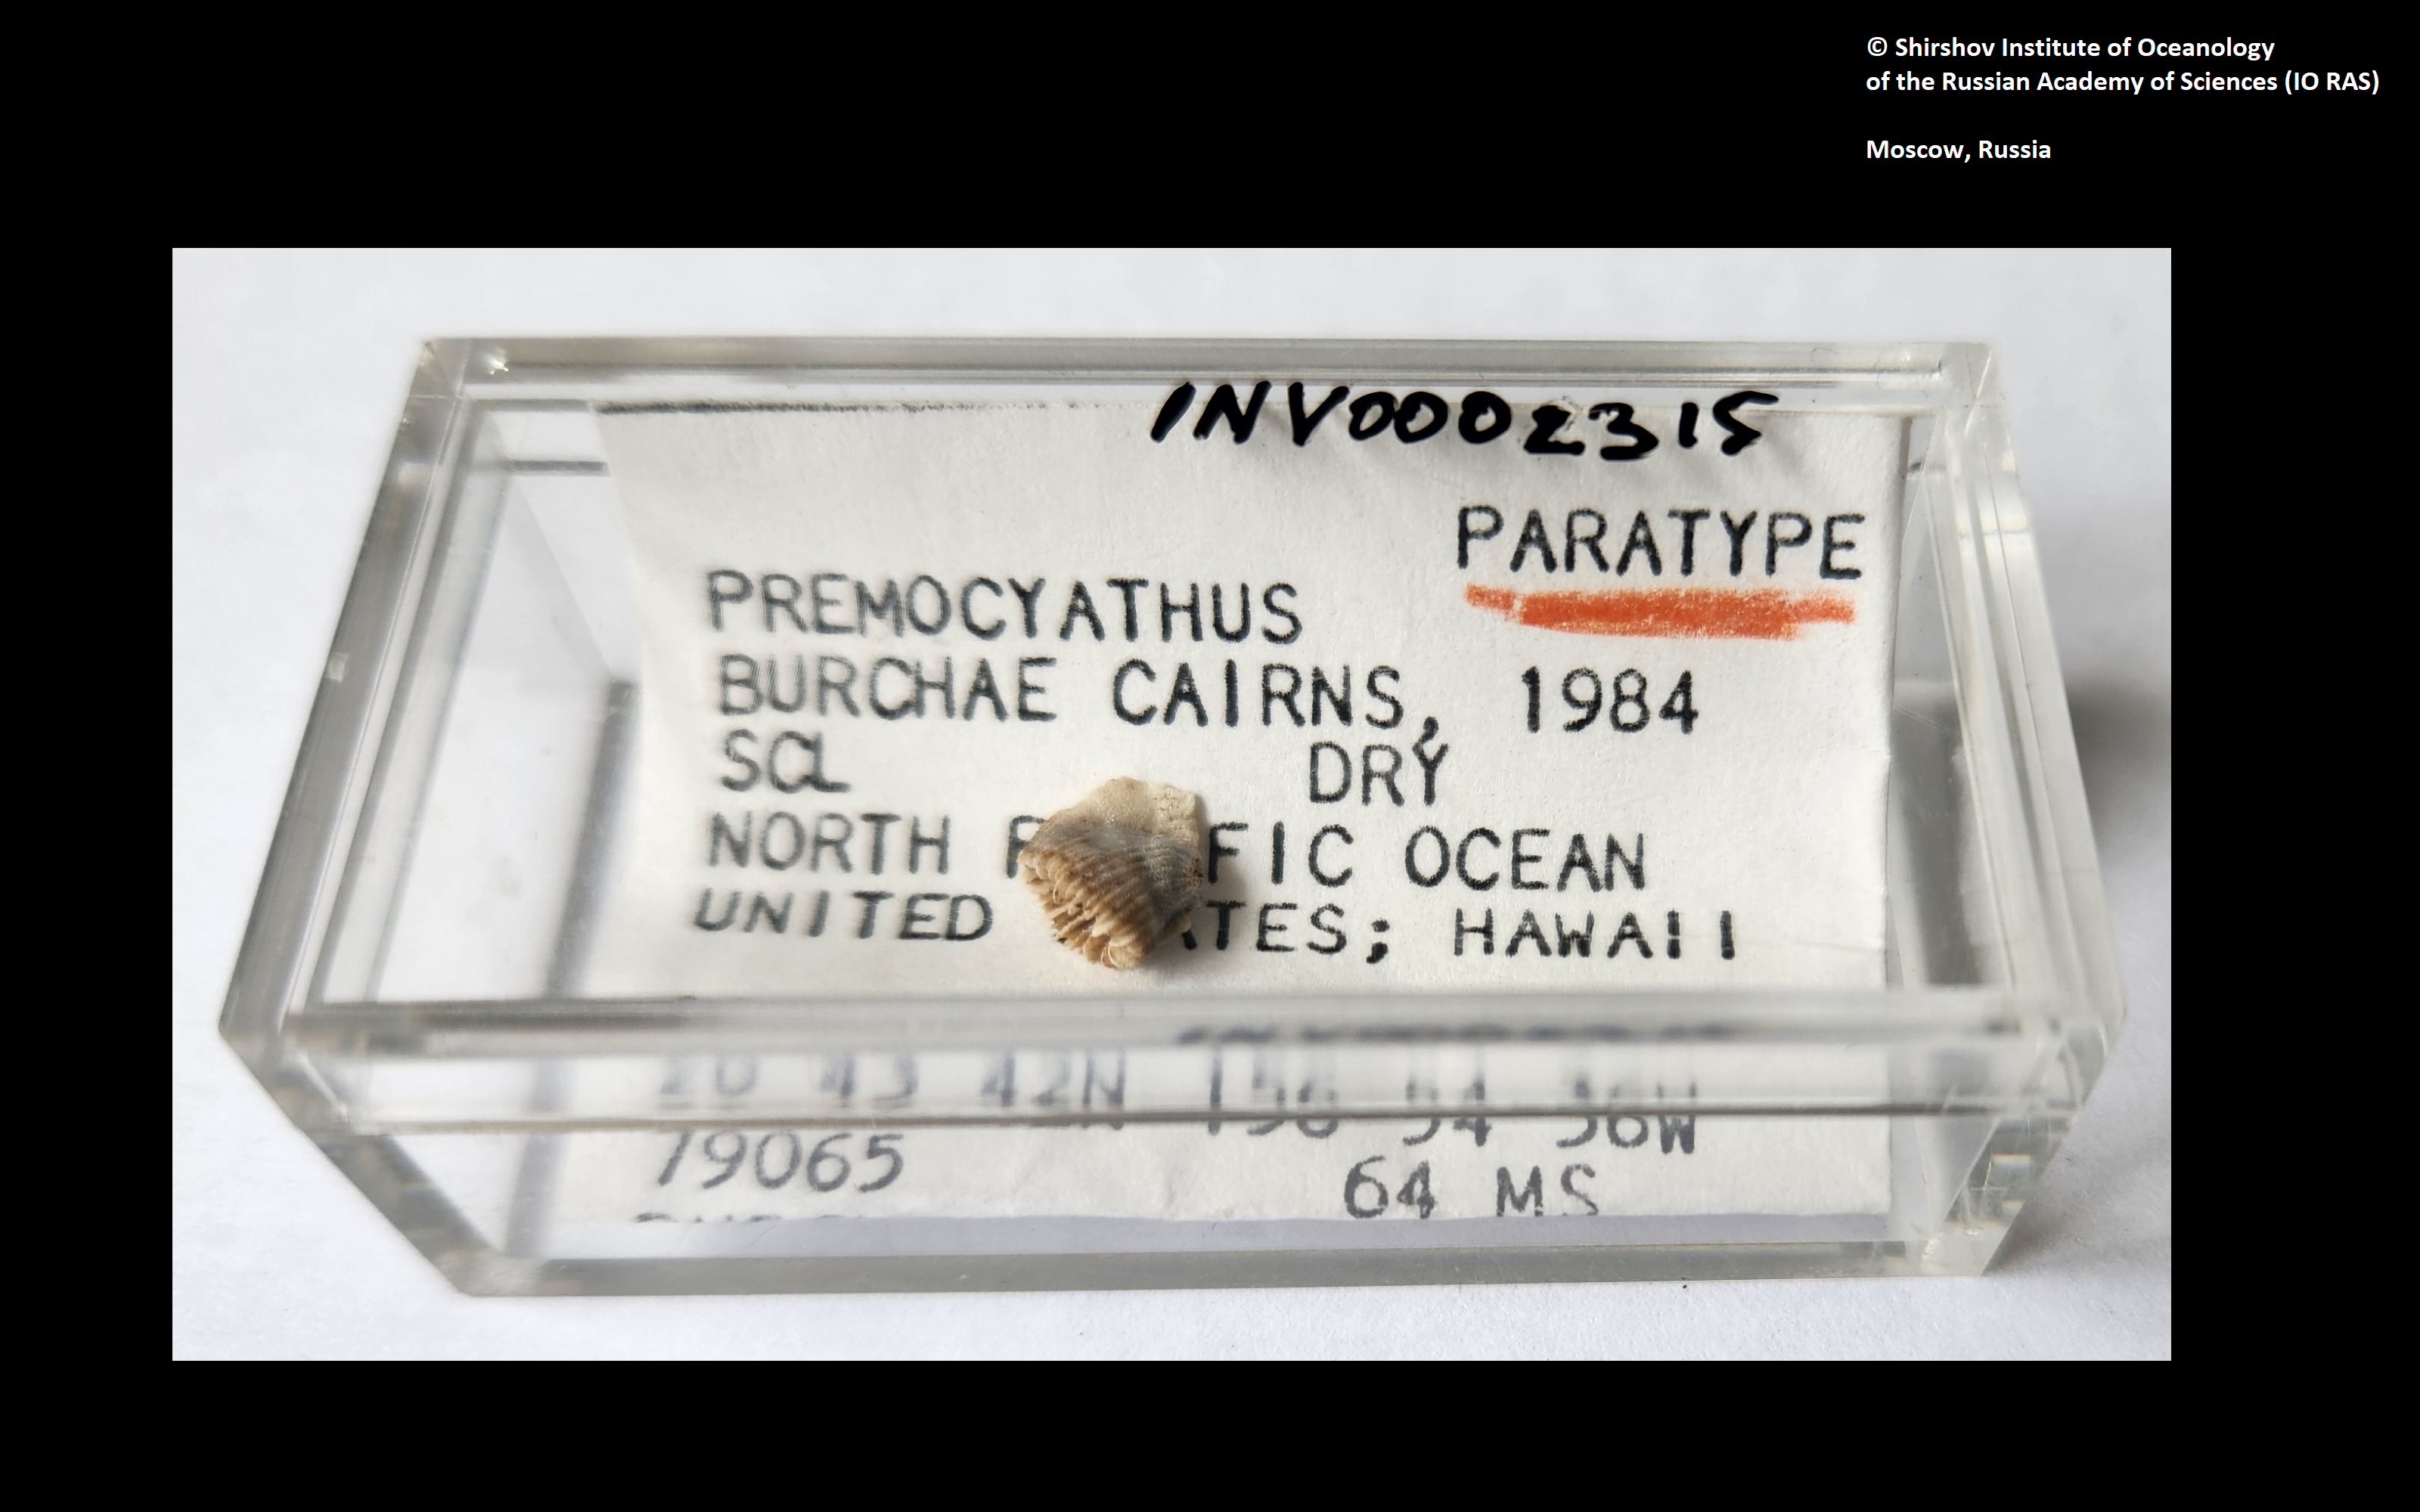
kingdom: Animalia
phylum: Cnidaria
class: Anthozoa
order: Scleractinia
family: Caryophylliidae
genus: Trochocyathus
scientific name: Trochocyathus burchae
